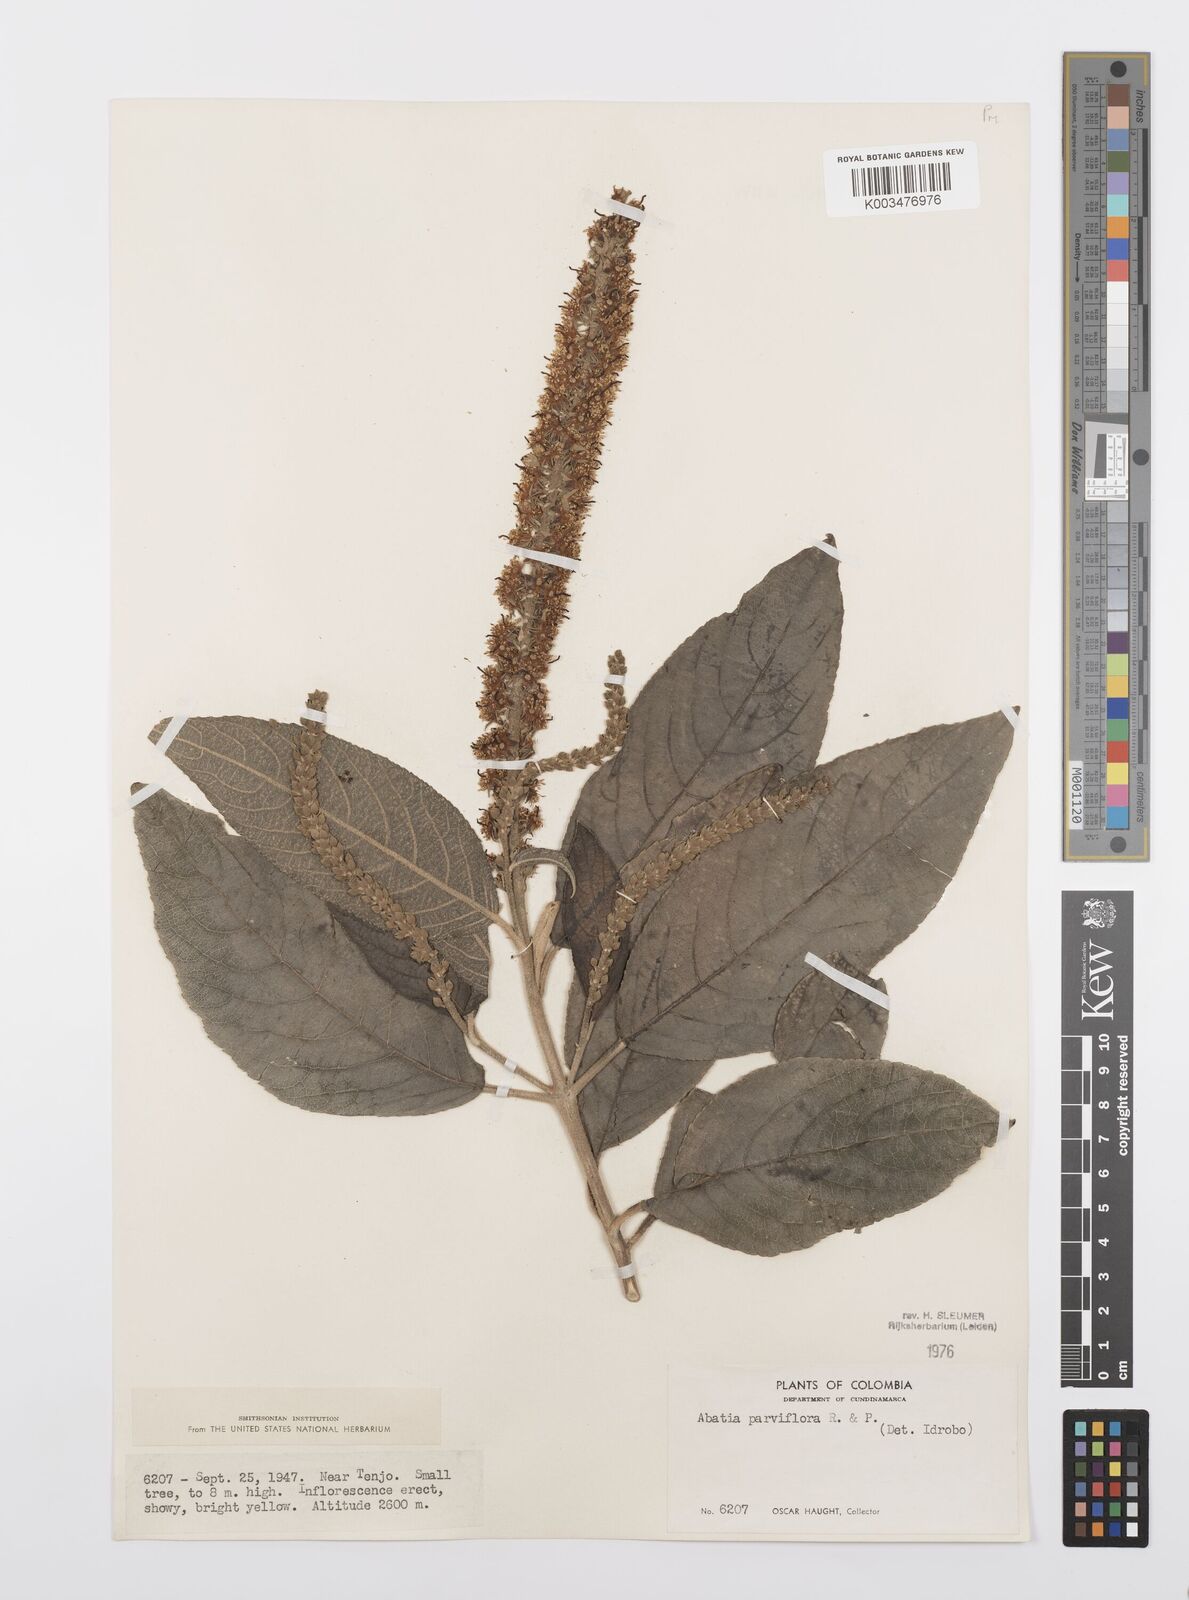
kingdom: Plantae
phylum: Tracheophyta
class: Magnoliopsida
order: Malpighiales
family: Salicaceae
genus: Abatia
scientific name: Abatia parviflora
